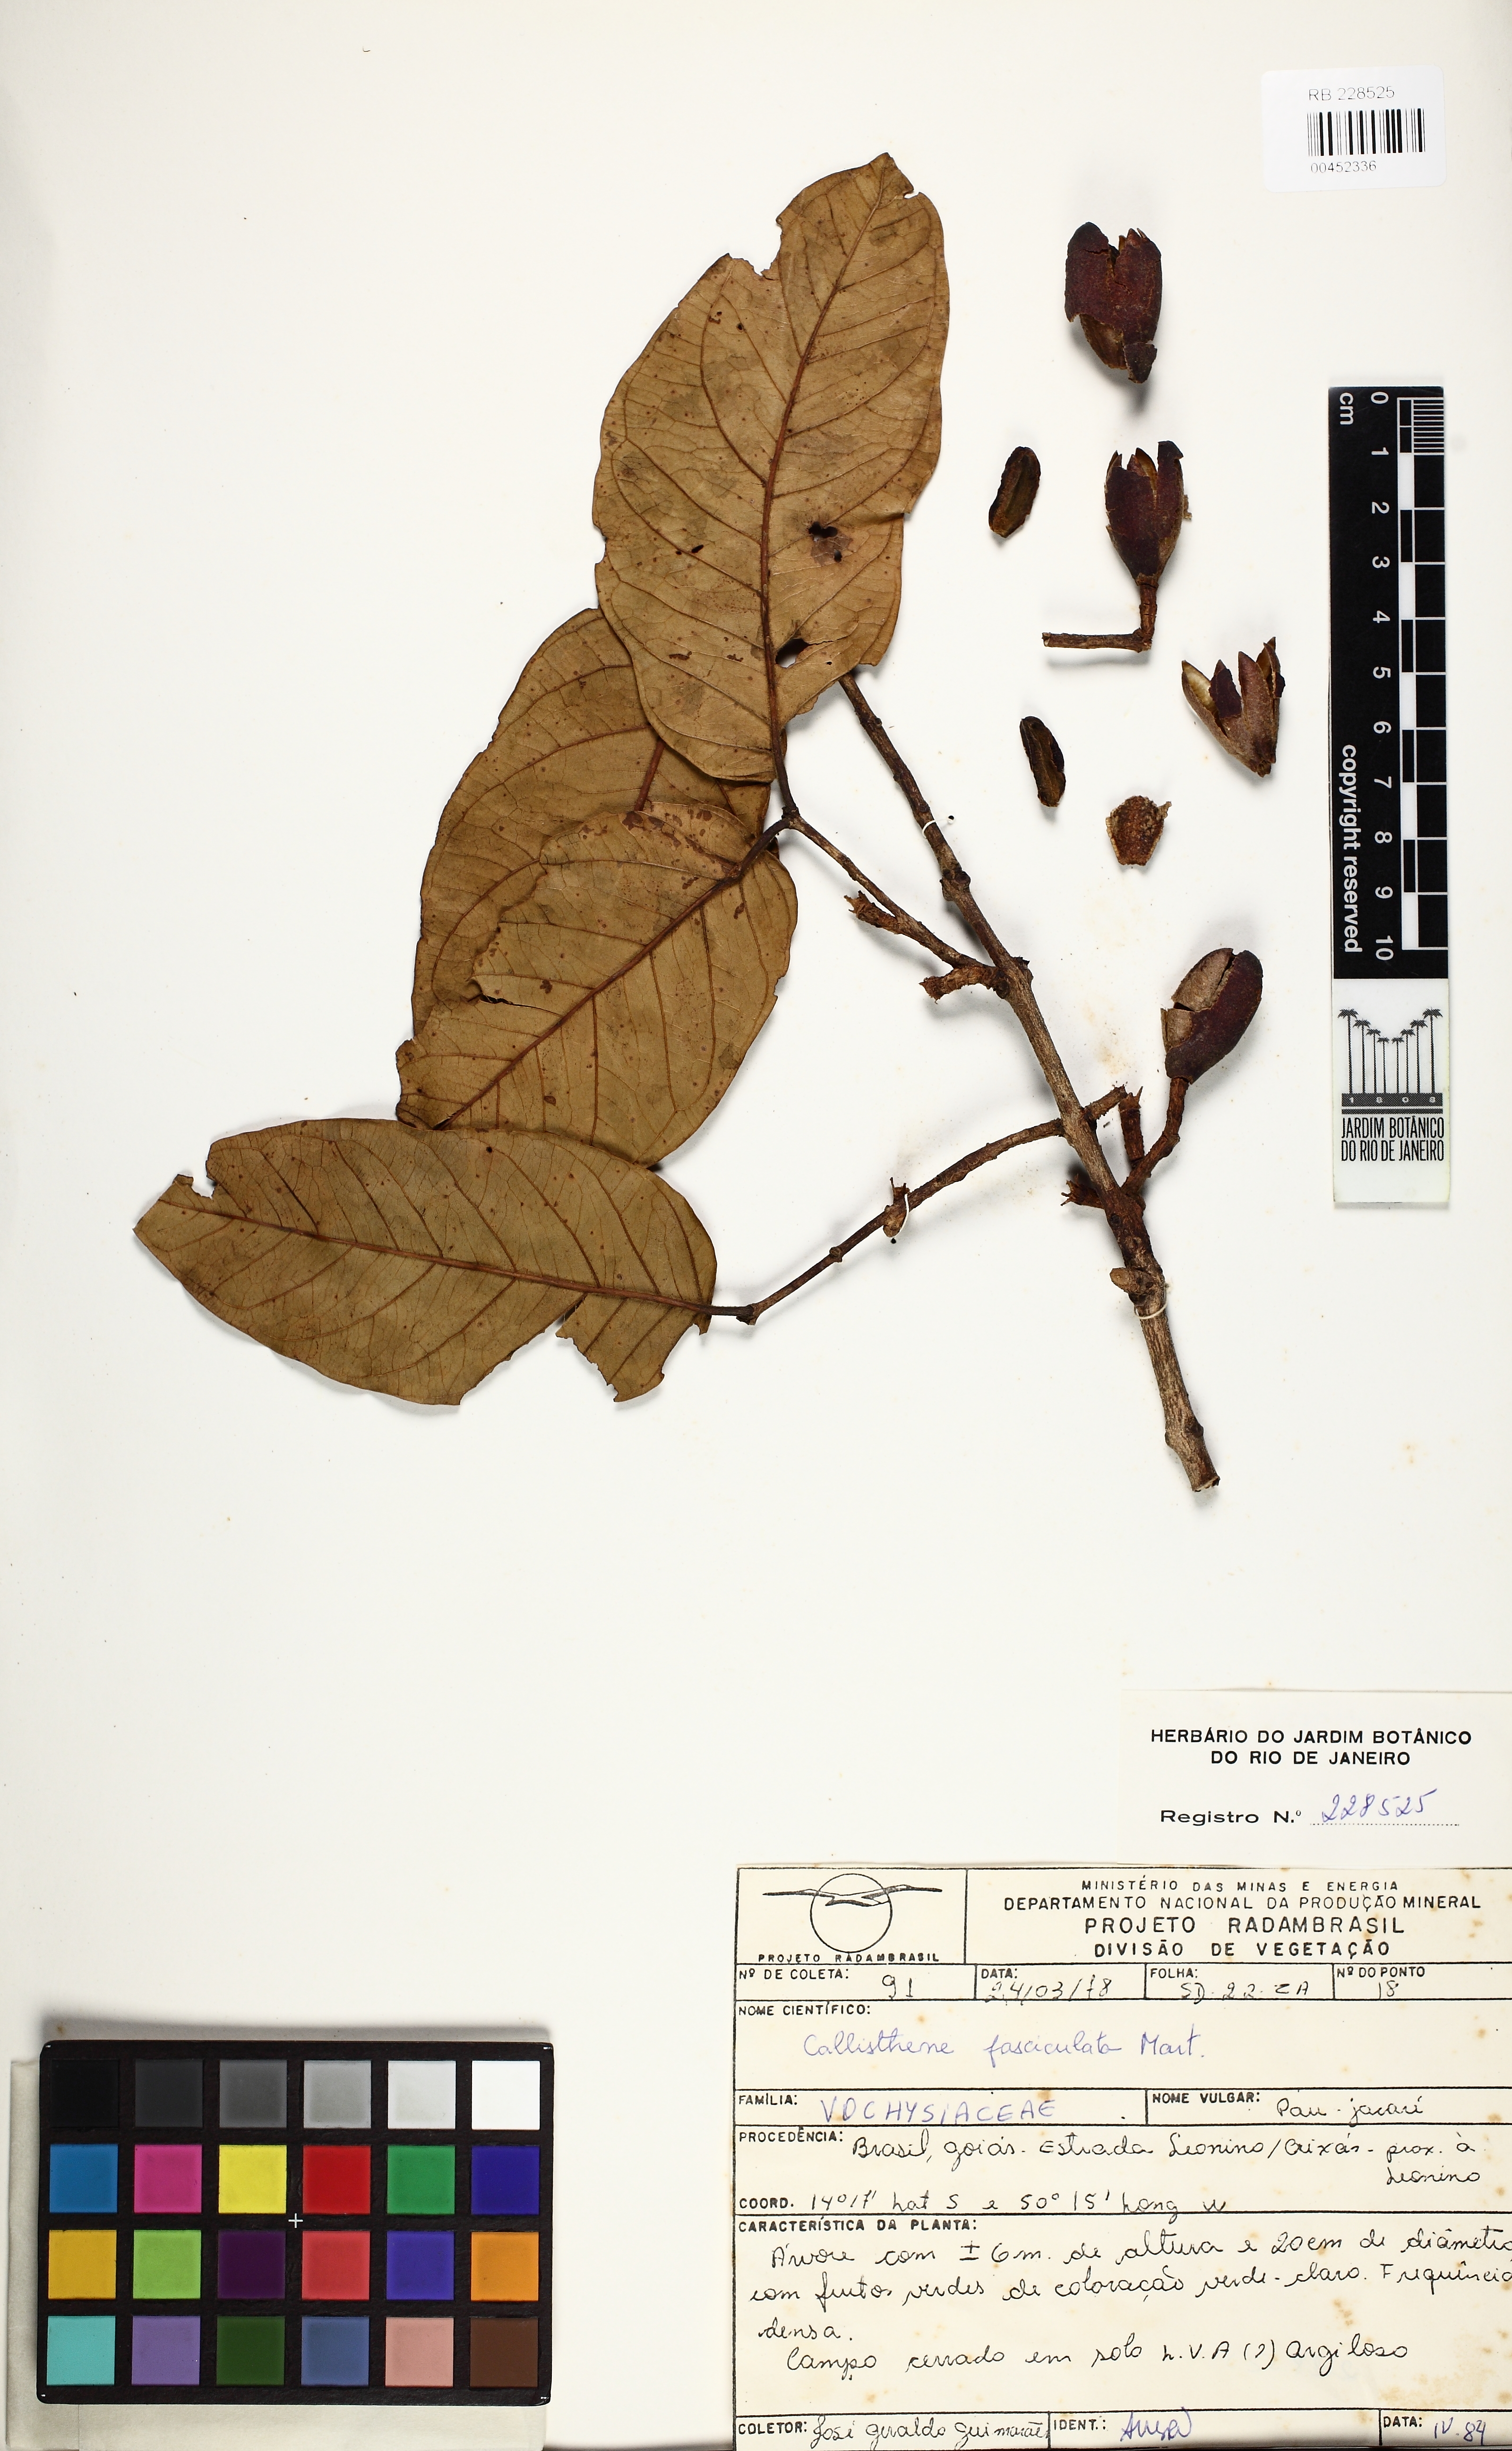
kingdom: Plantae
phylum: Tracheophyta
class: Magnoliopsida
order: Myrtales
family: Vochysiaceae
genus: Callisthene
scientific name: Callisthene fasciculata
